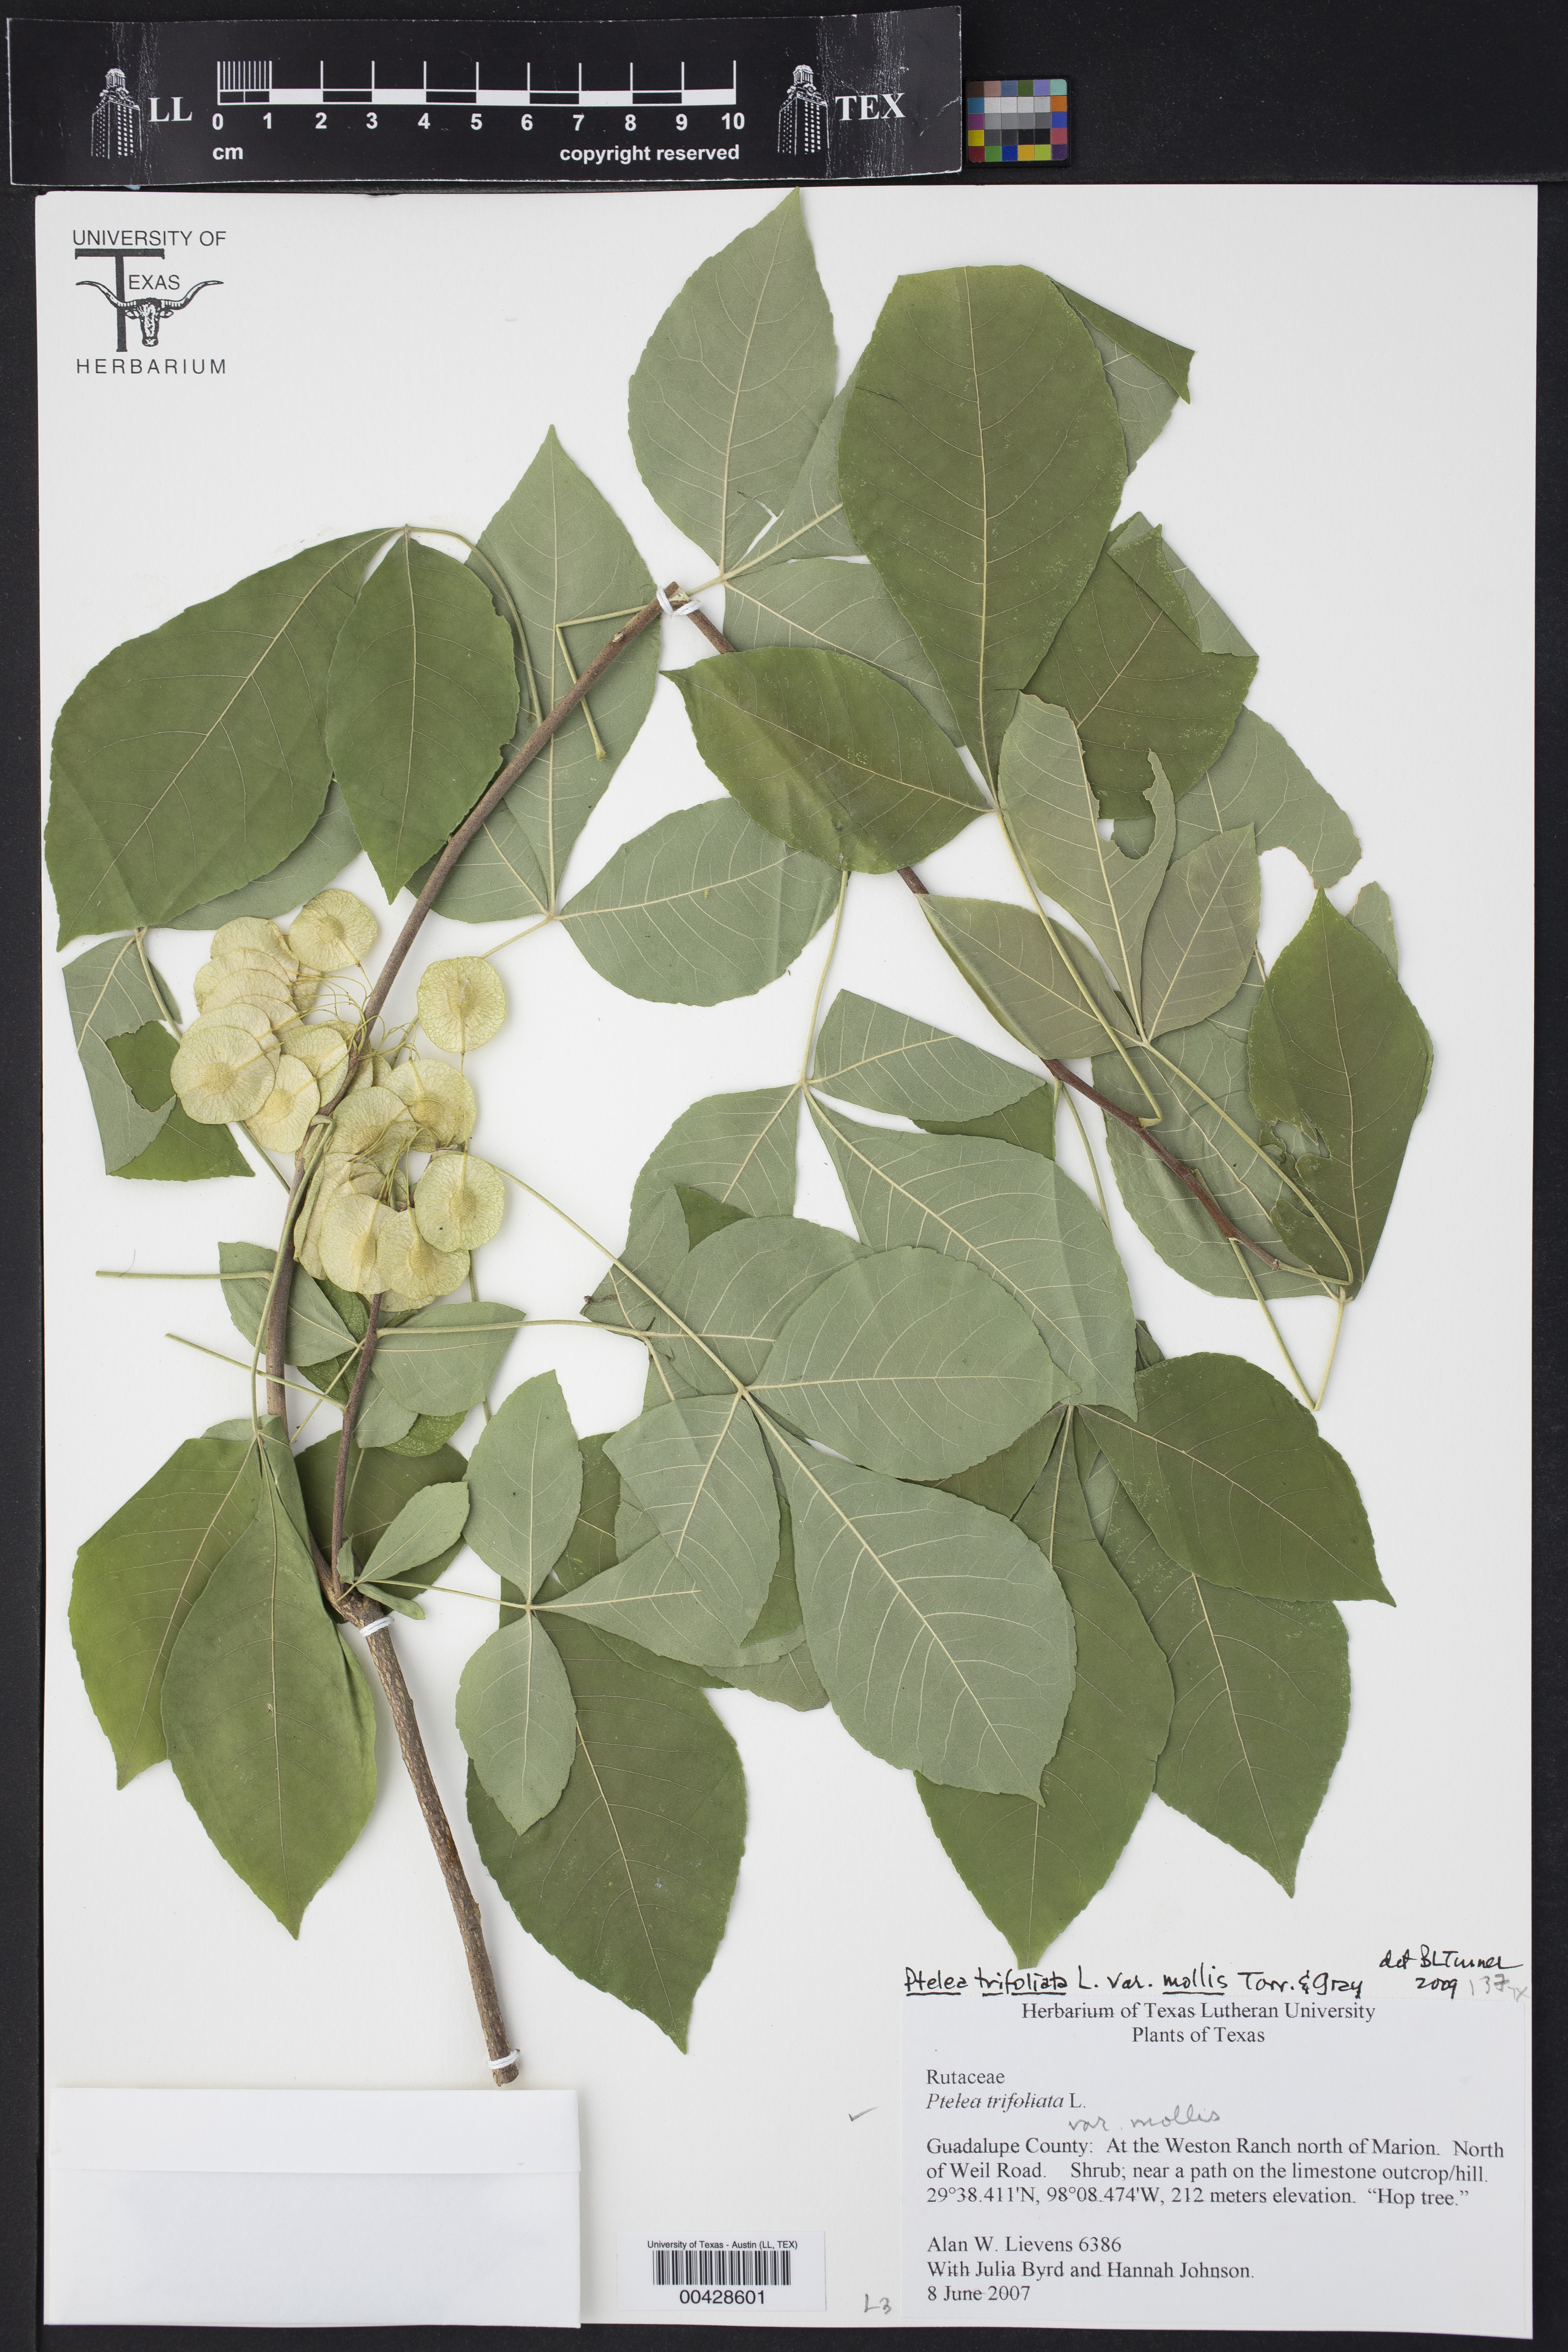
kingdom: Plantae
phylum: Tracheophyta
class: Magnoliopsida
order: Sapindales
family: Rutaceae
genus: Ptelea
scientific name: Ptelea trifoliata
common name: Common hop-tree
